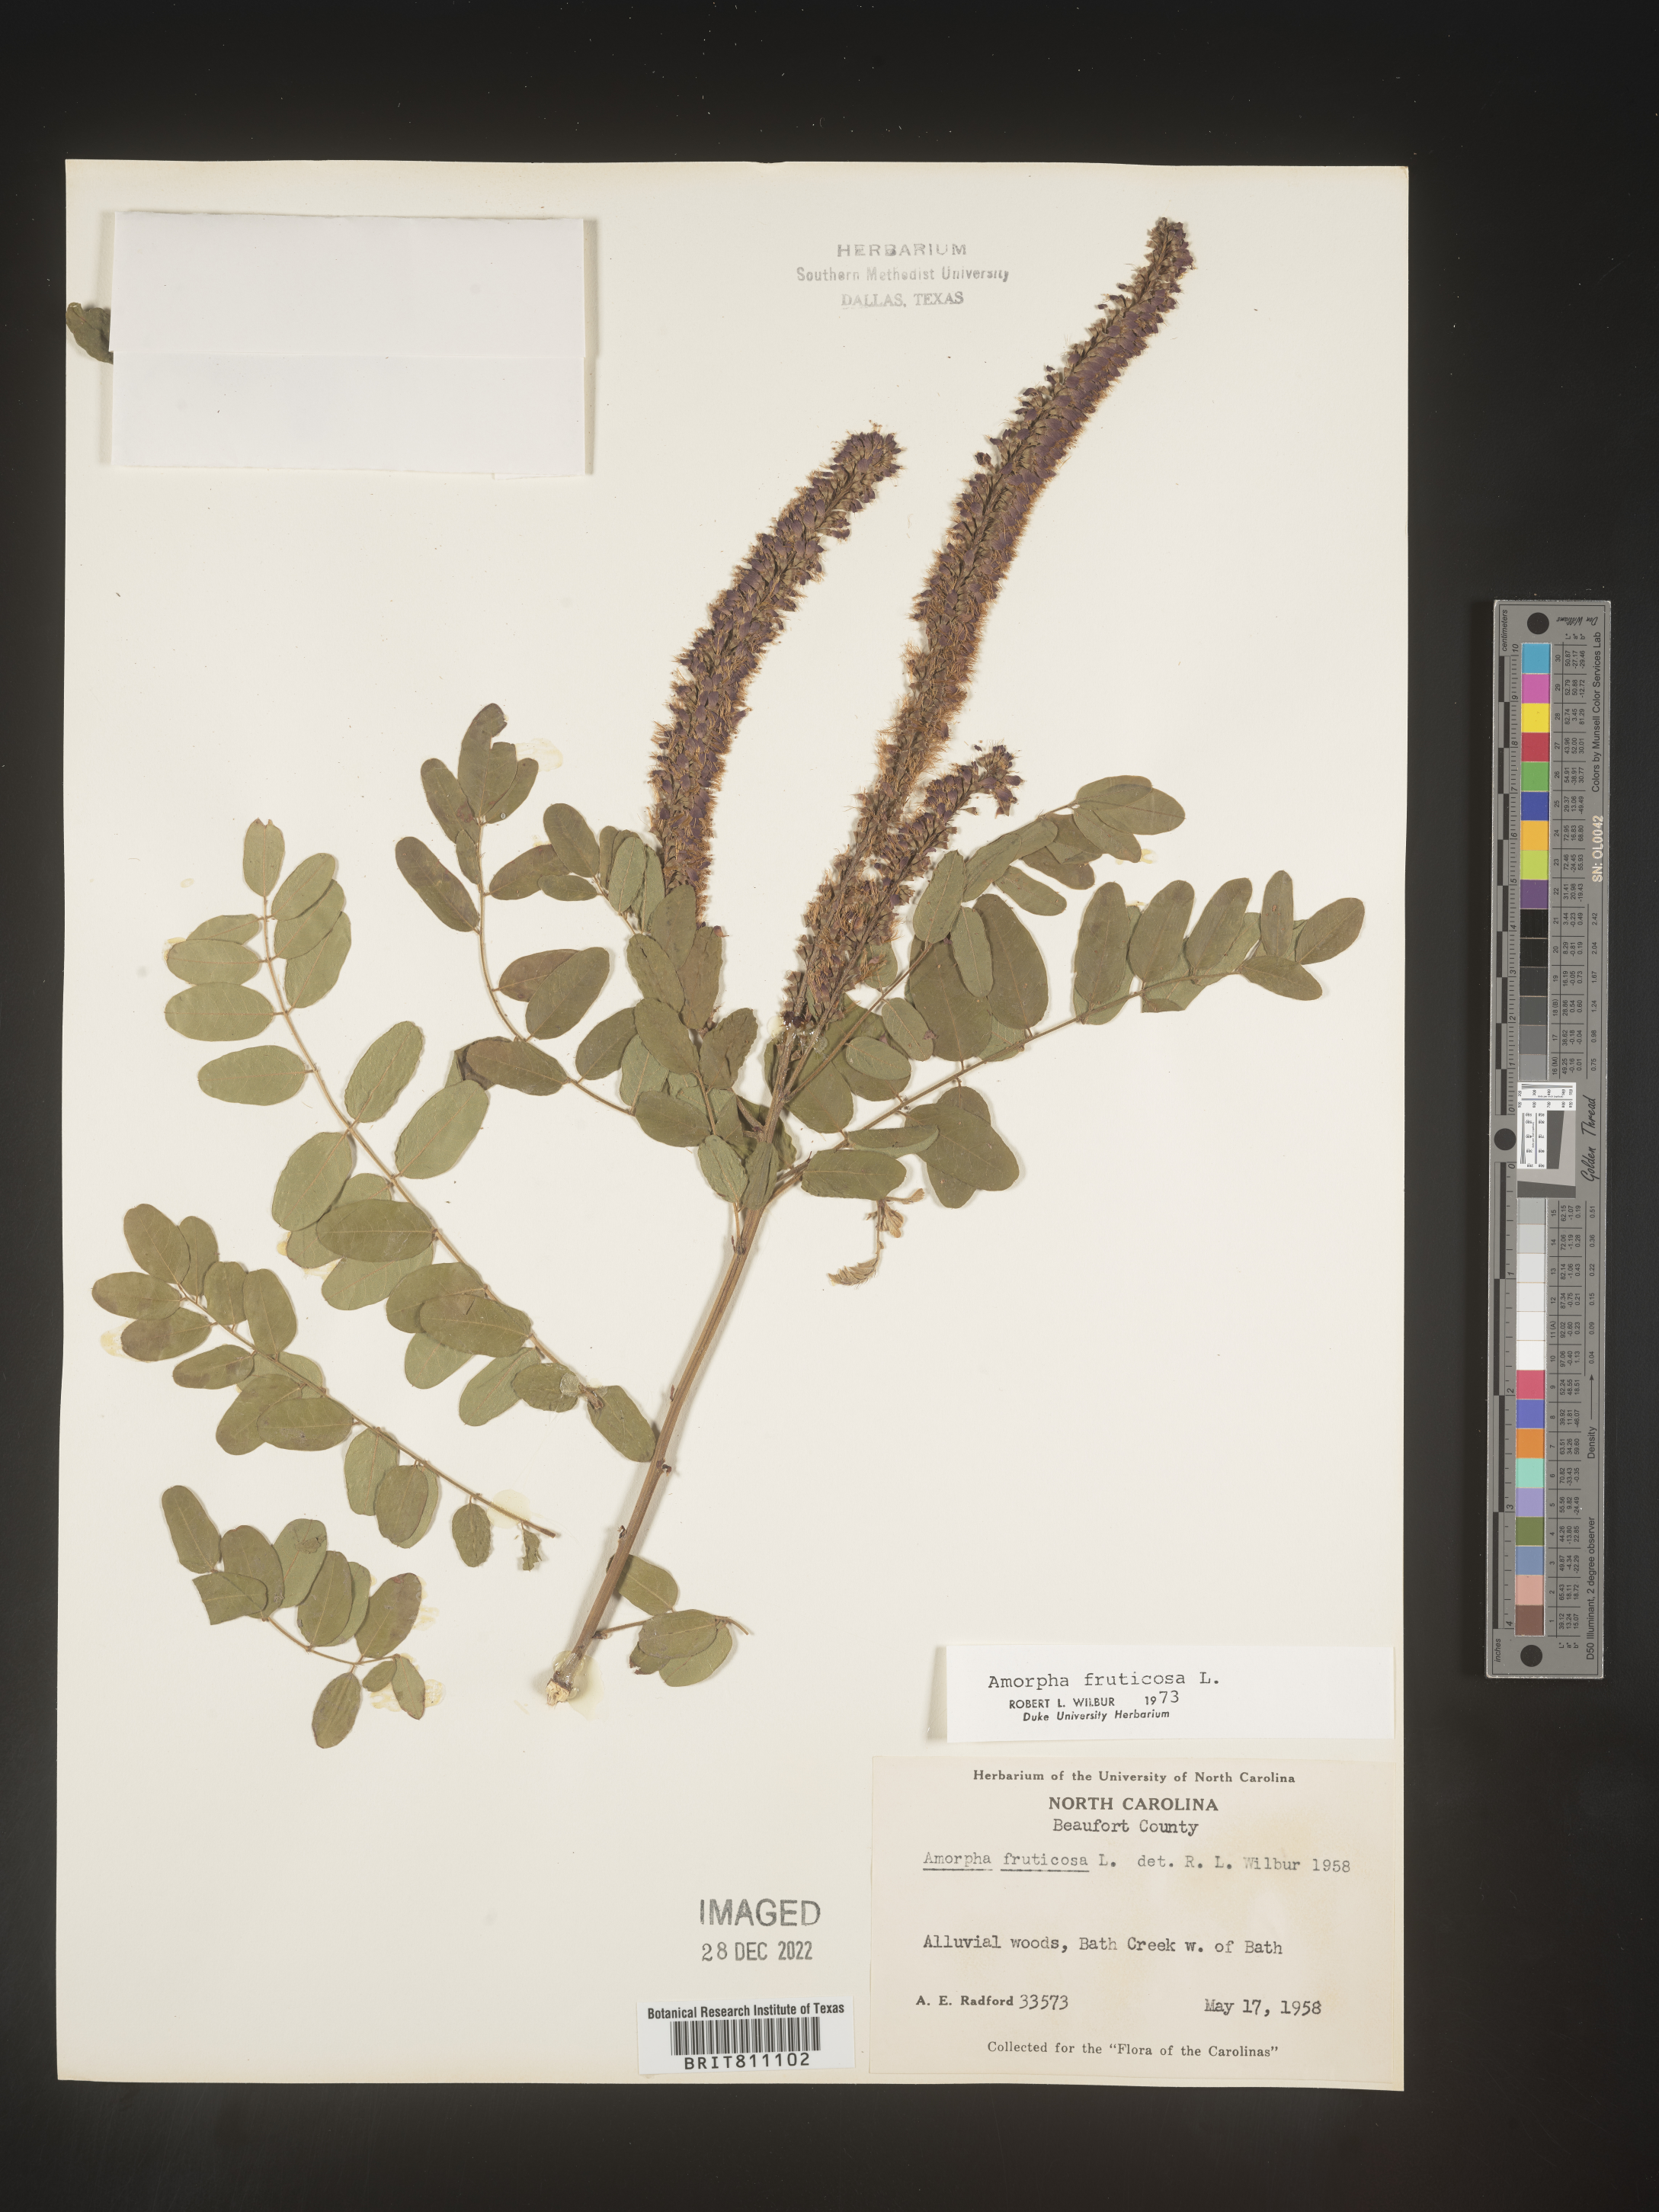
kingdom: Plantae
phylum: Tracheophyta
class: Magnoliopsida
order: Fabales
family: Fabaceae
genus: Amorpha
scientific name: Amorpha fruticosa
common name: False indigo
